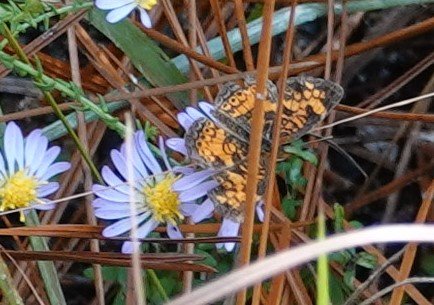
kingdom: Animalia
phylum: Arthropoda
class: Insecta
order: Lepidoptera
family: Nymphalidae
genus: Phyciodes
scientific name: Phyciodes tharos
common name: Pearl Crescent
